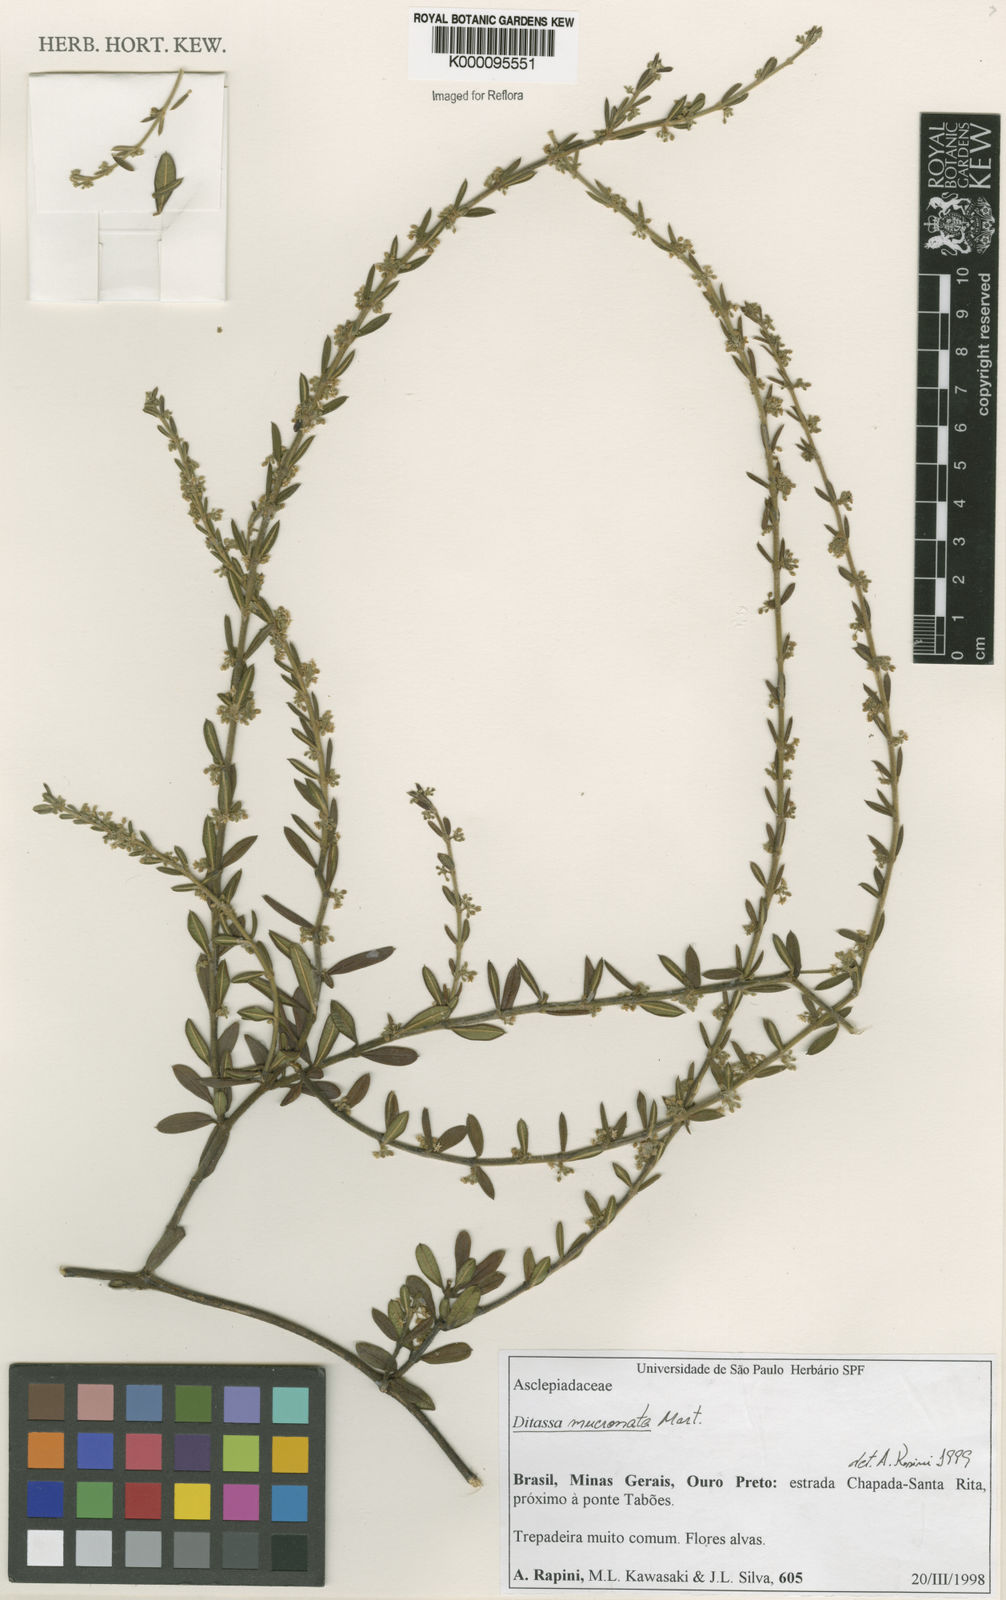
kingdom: Plantae
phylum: Tracheophyta
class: Magnoliopsida
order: Gentianales
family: Apocynaceae
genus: Ditassa
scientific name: Ditassa mucronata
